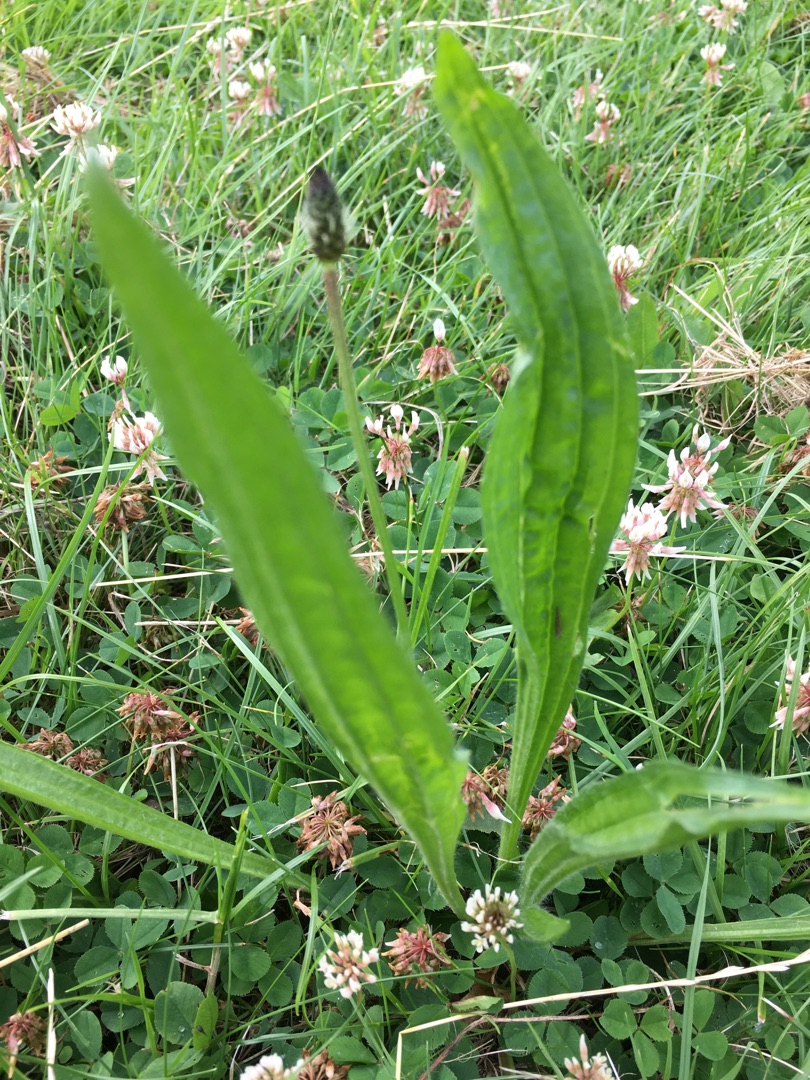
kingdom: Plantae
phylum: Tracheophyta
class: Magnoliopsida
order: Lamiales
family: Plantaginaceae
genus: Plantago
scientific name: Plantago lanceolata
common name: Lancet-vejbred
